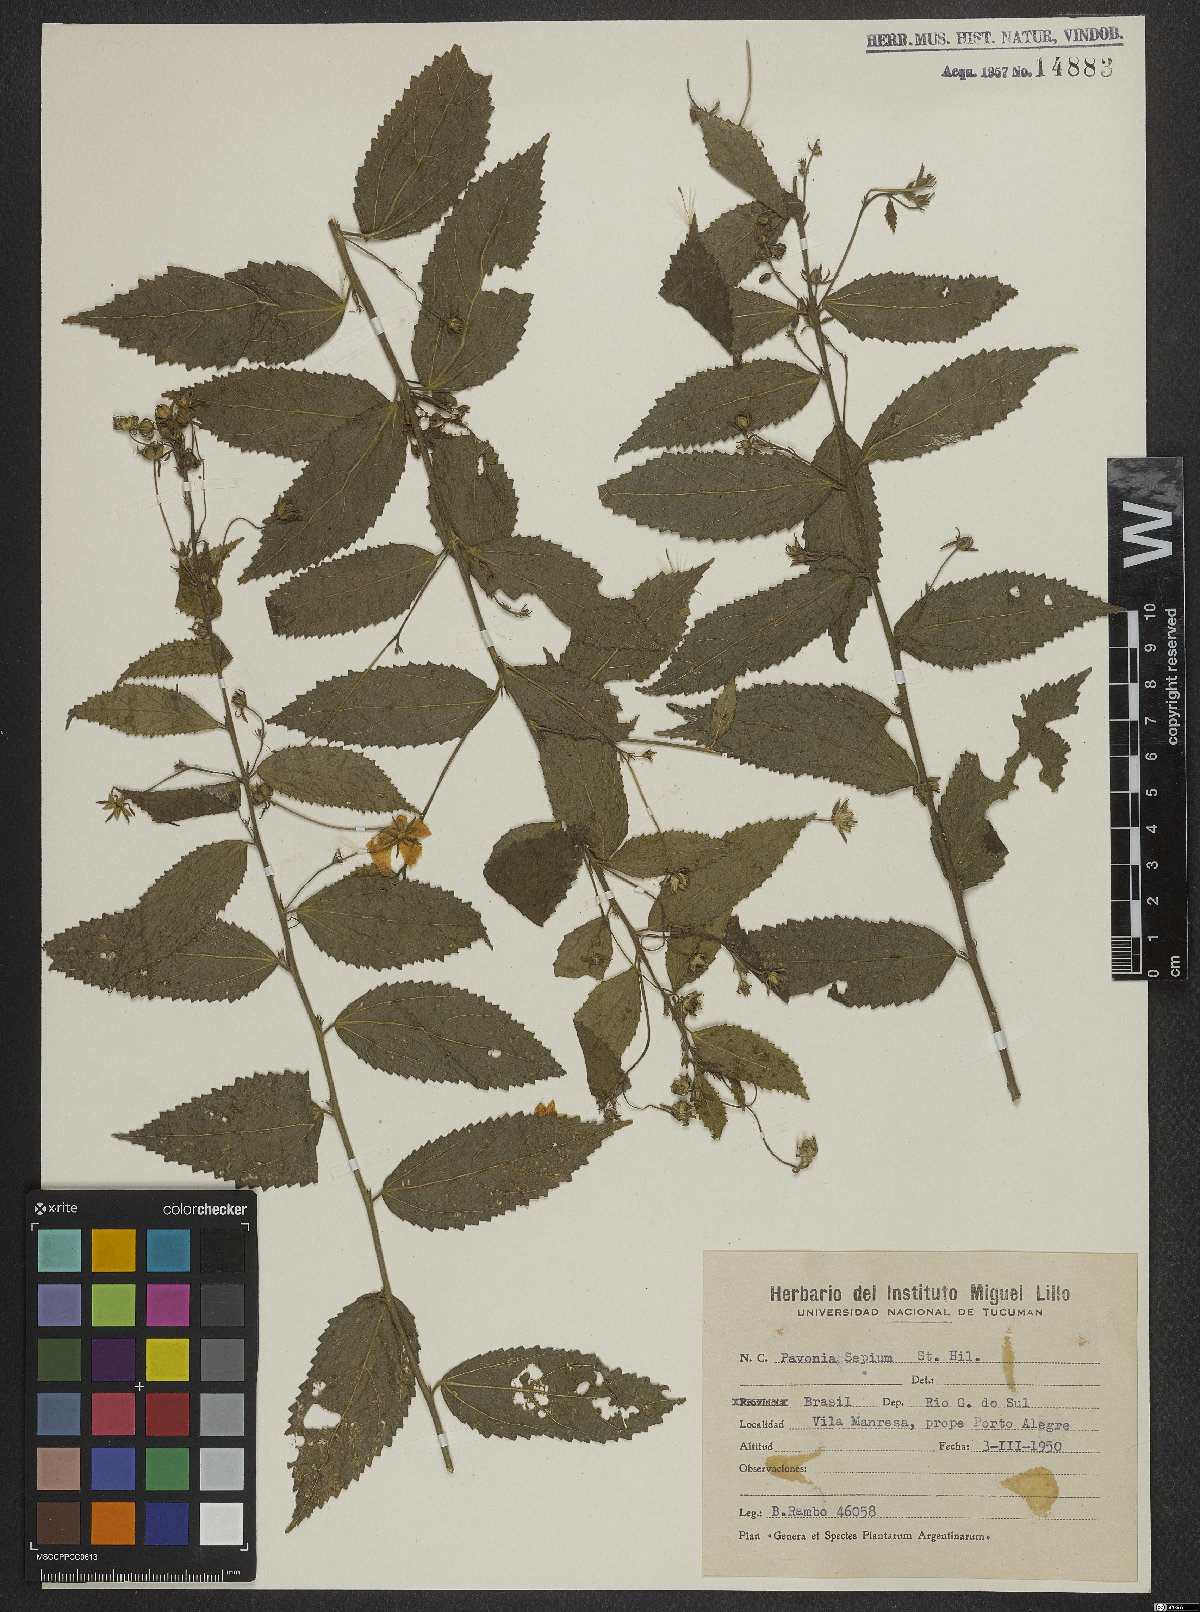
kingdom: Plantae
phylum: Tracheophyta
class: Magnoliopsida
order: Malvales
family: Malvaceae
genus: Pavonia
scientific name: Pavonia sepium
